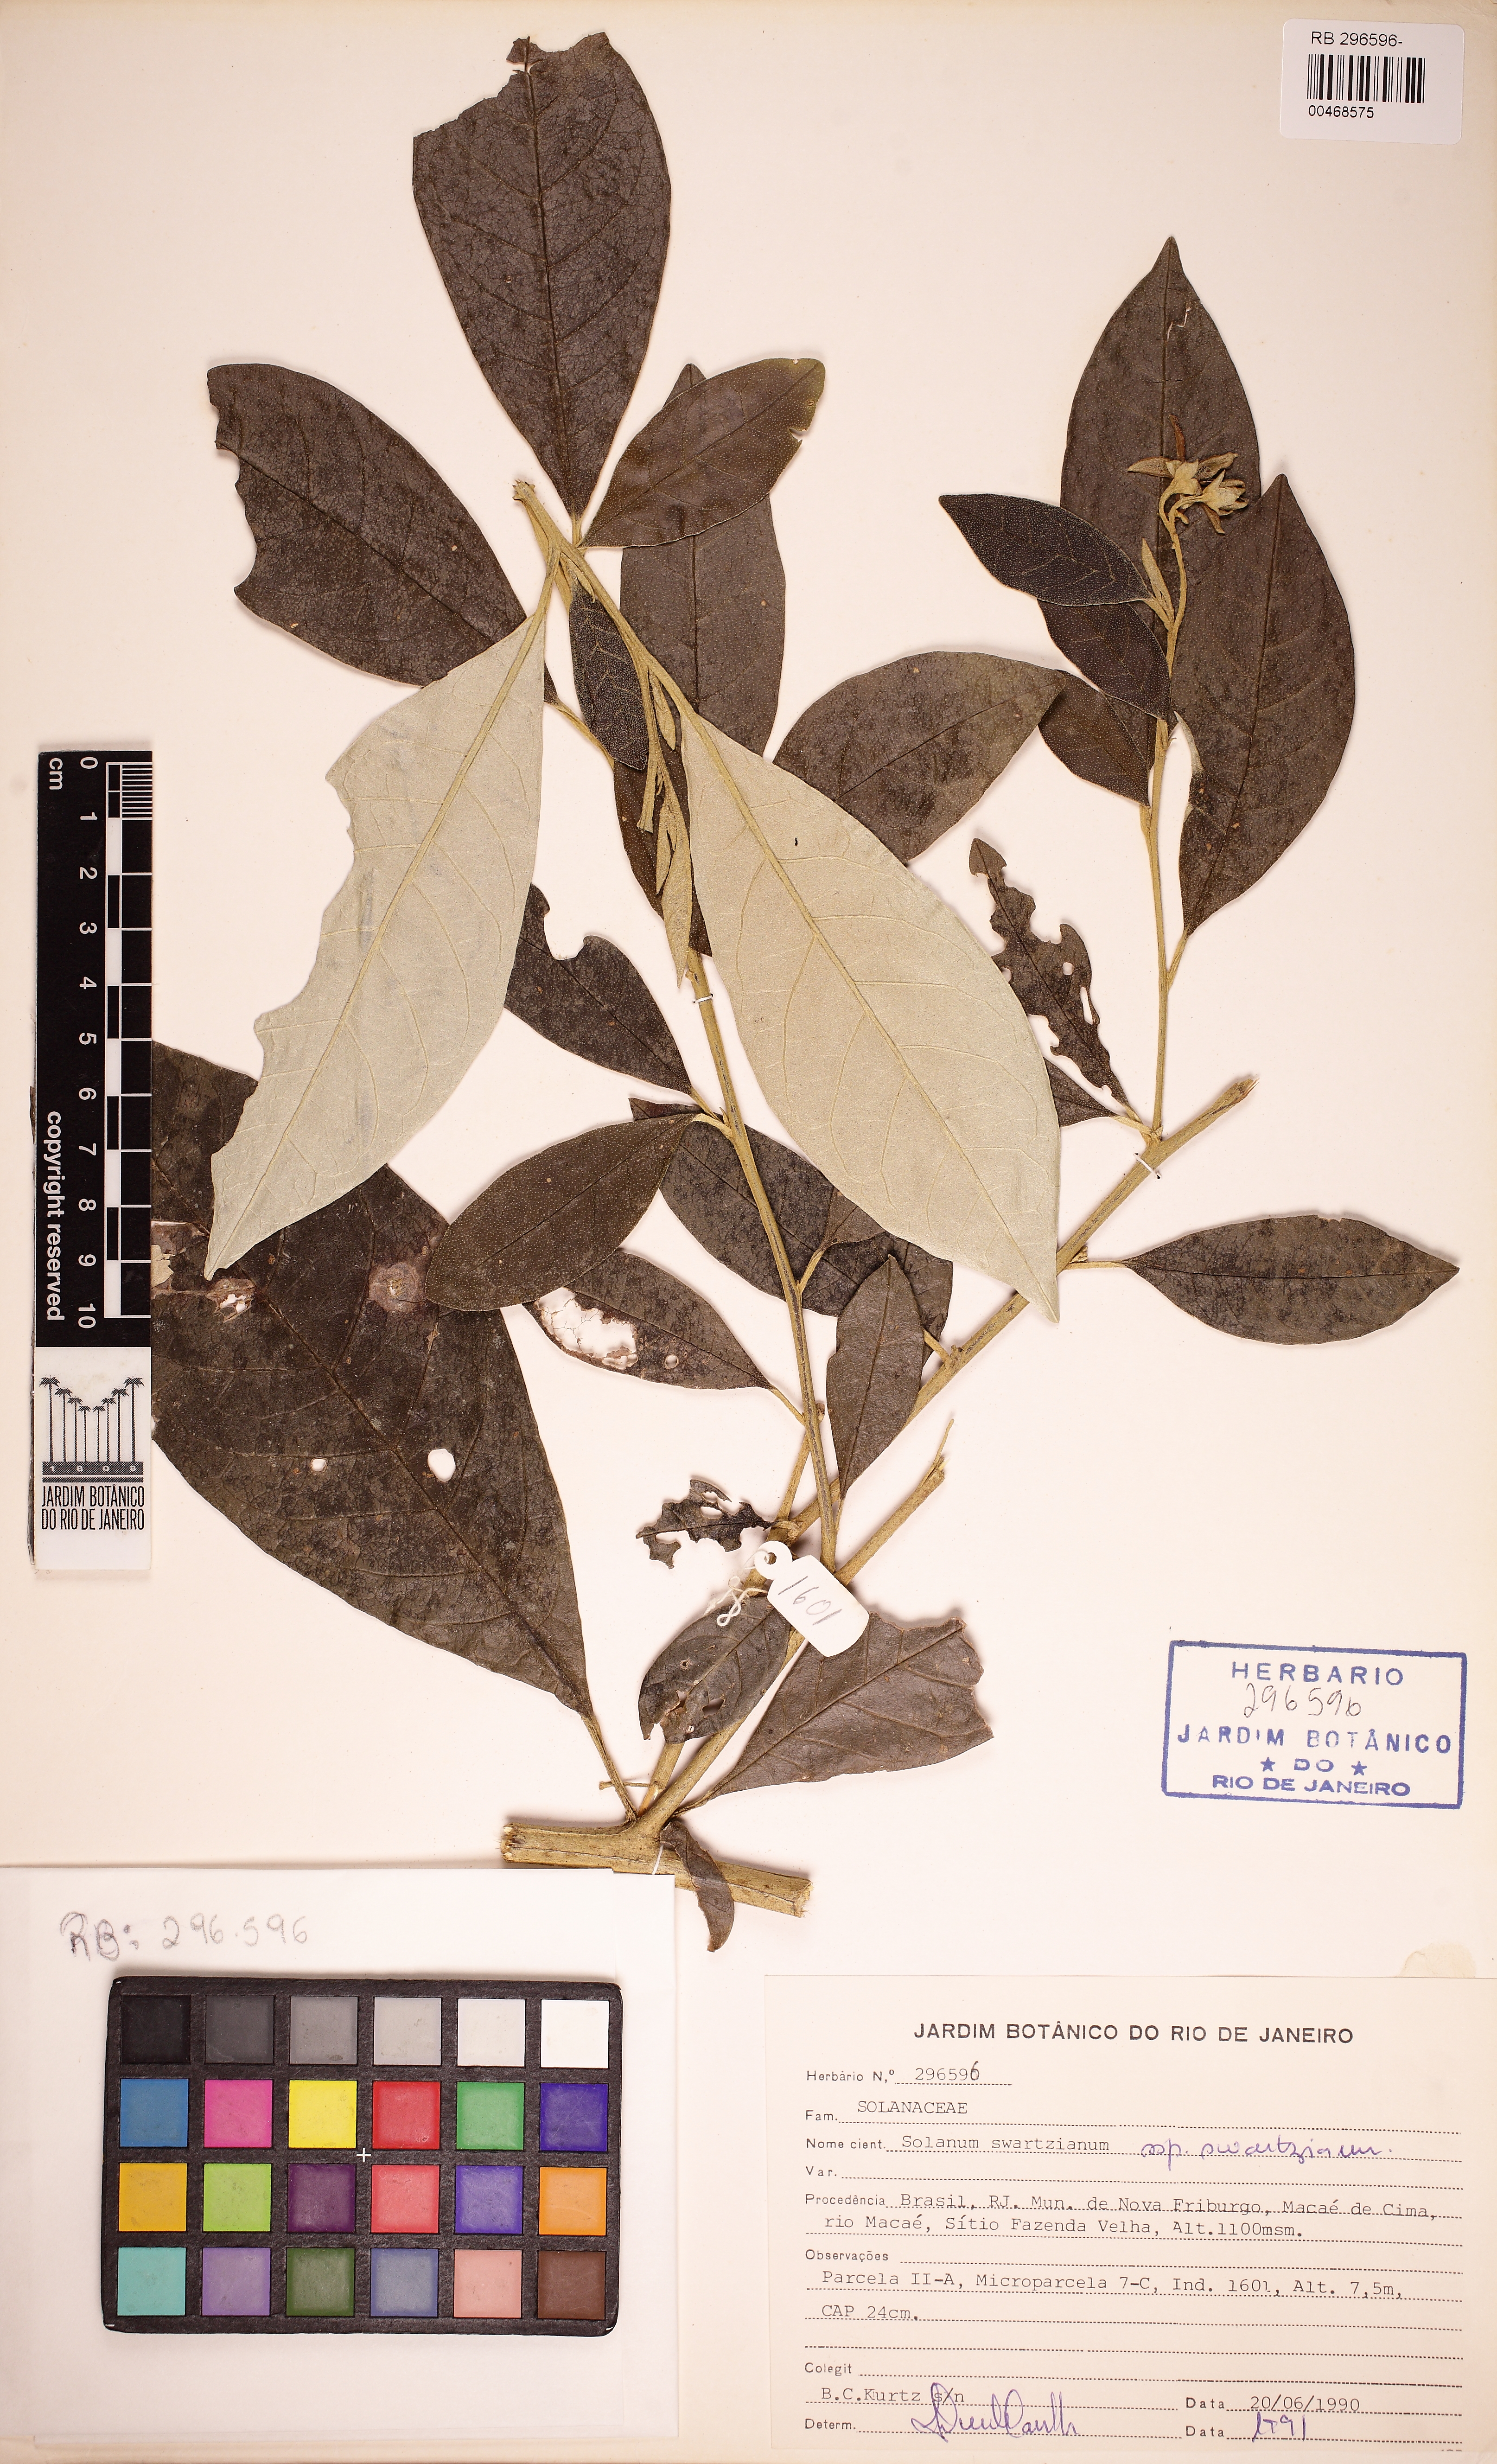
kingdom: Plantae
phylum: Tracheophyta
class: Magnoliopsida
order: Solanales
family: Solanaceae
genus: Solanum
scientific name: Solanum swartzianum
